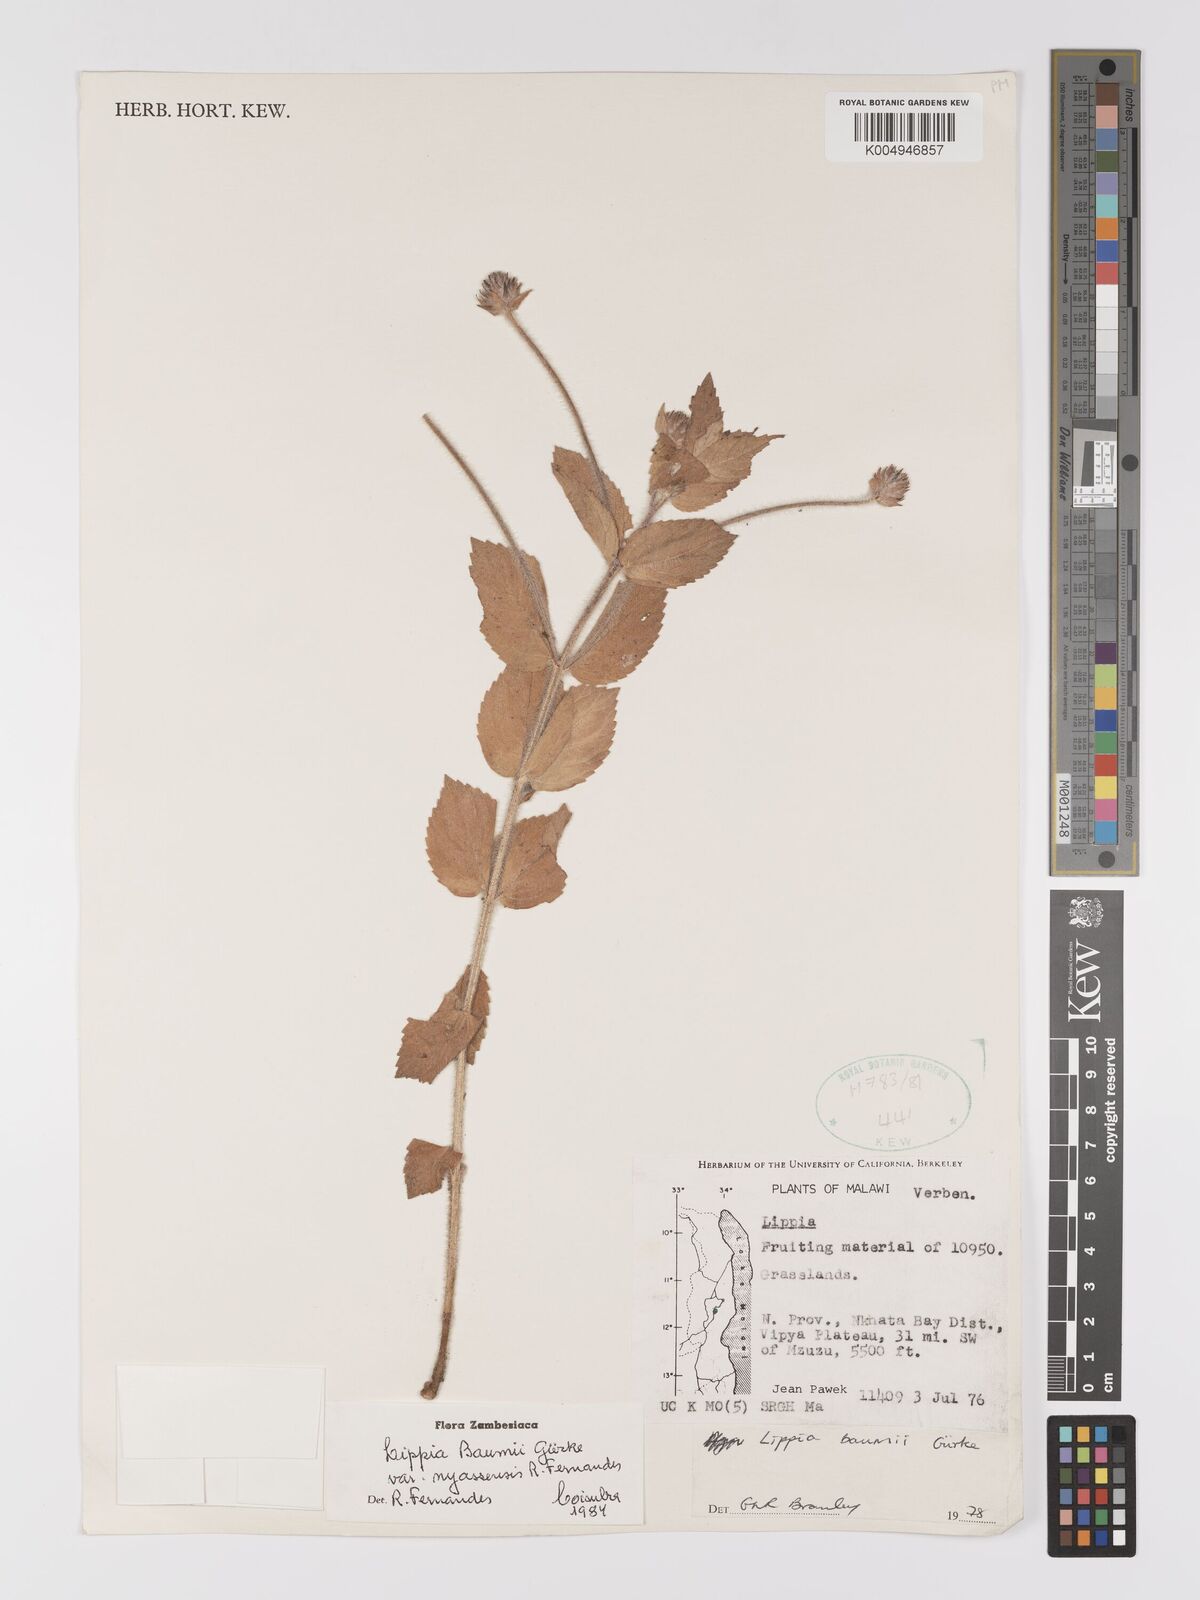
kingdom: Plantae
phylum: Tracheophyta
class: Magnoliopsida
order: Lamiales
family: Verbenaceae
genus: Lippia
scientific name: Lippia baumii
